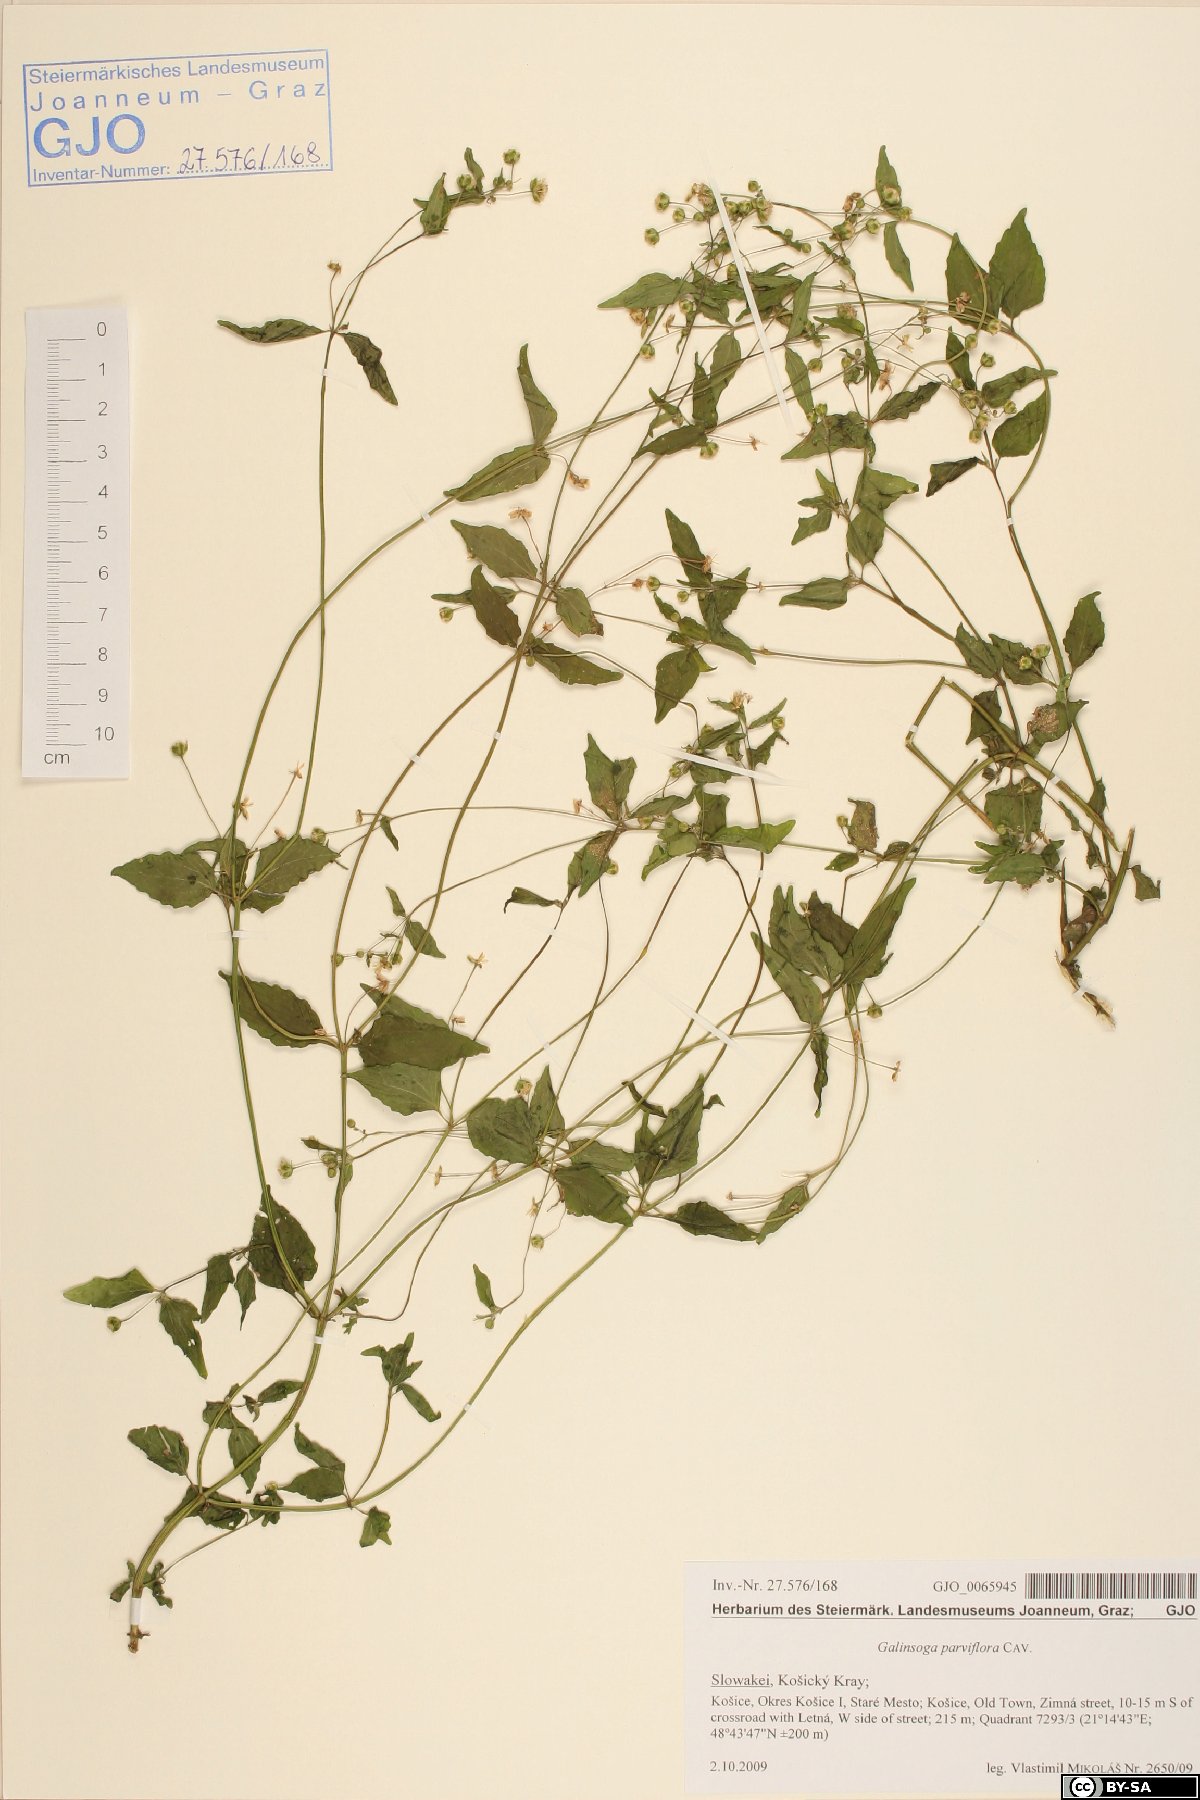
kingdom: Plantae
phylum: Tracheophyta
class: Magnoliopsida
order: Asterales
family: Asteraceae
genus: Galinsoga
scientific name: Galinsoga parviflora
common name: Gallant soldier
